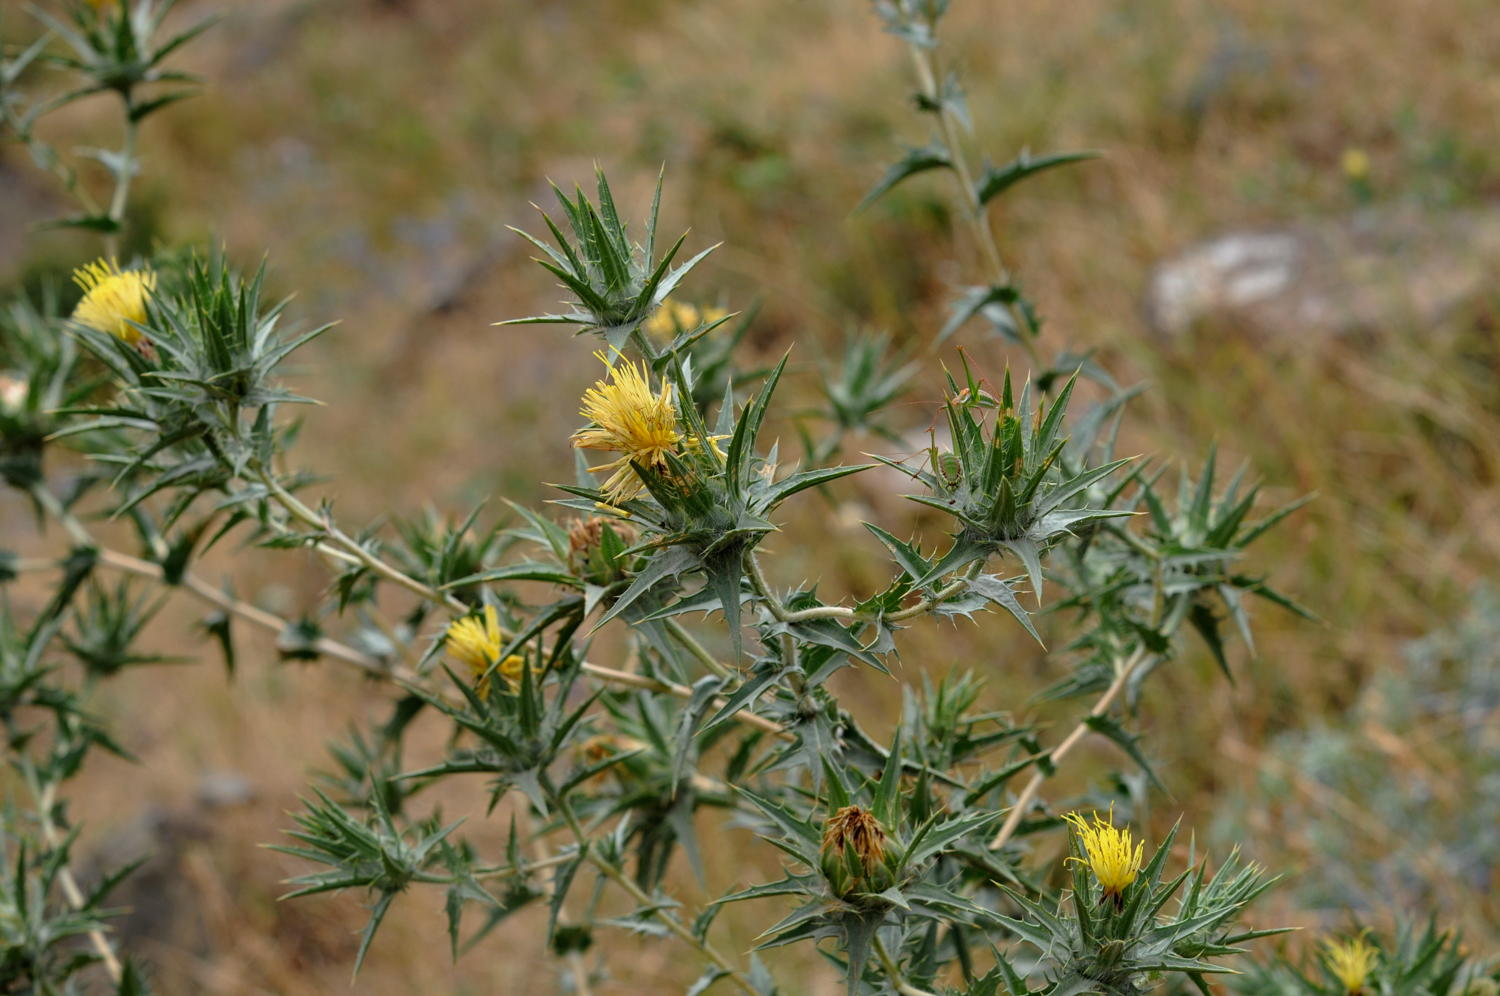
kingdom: Plantae
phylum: Tracheophyta
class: Magnoliopsida
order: Asterales
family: Asteraceae
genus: Carthamus
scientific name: Carthamus lanatus
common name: Downy safflower
